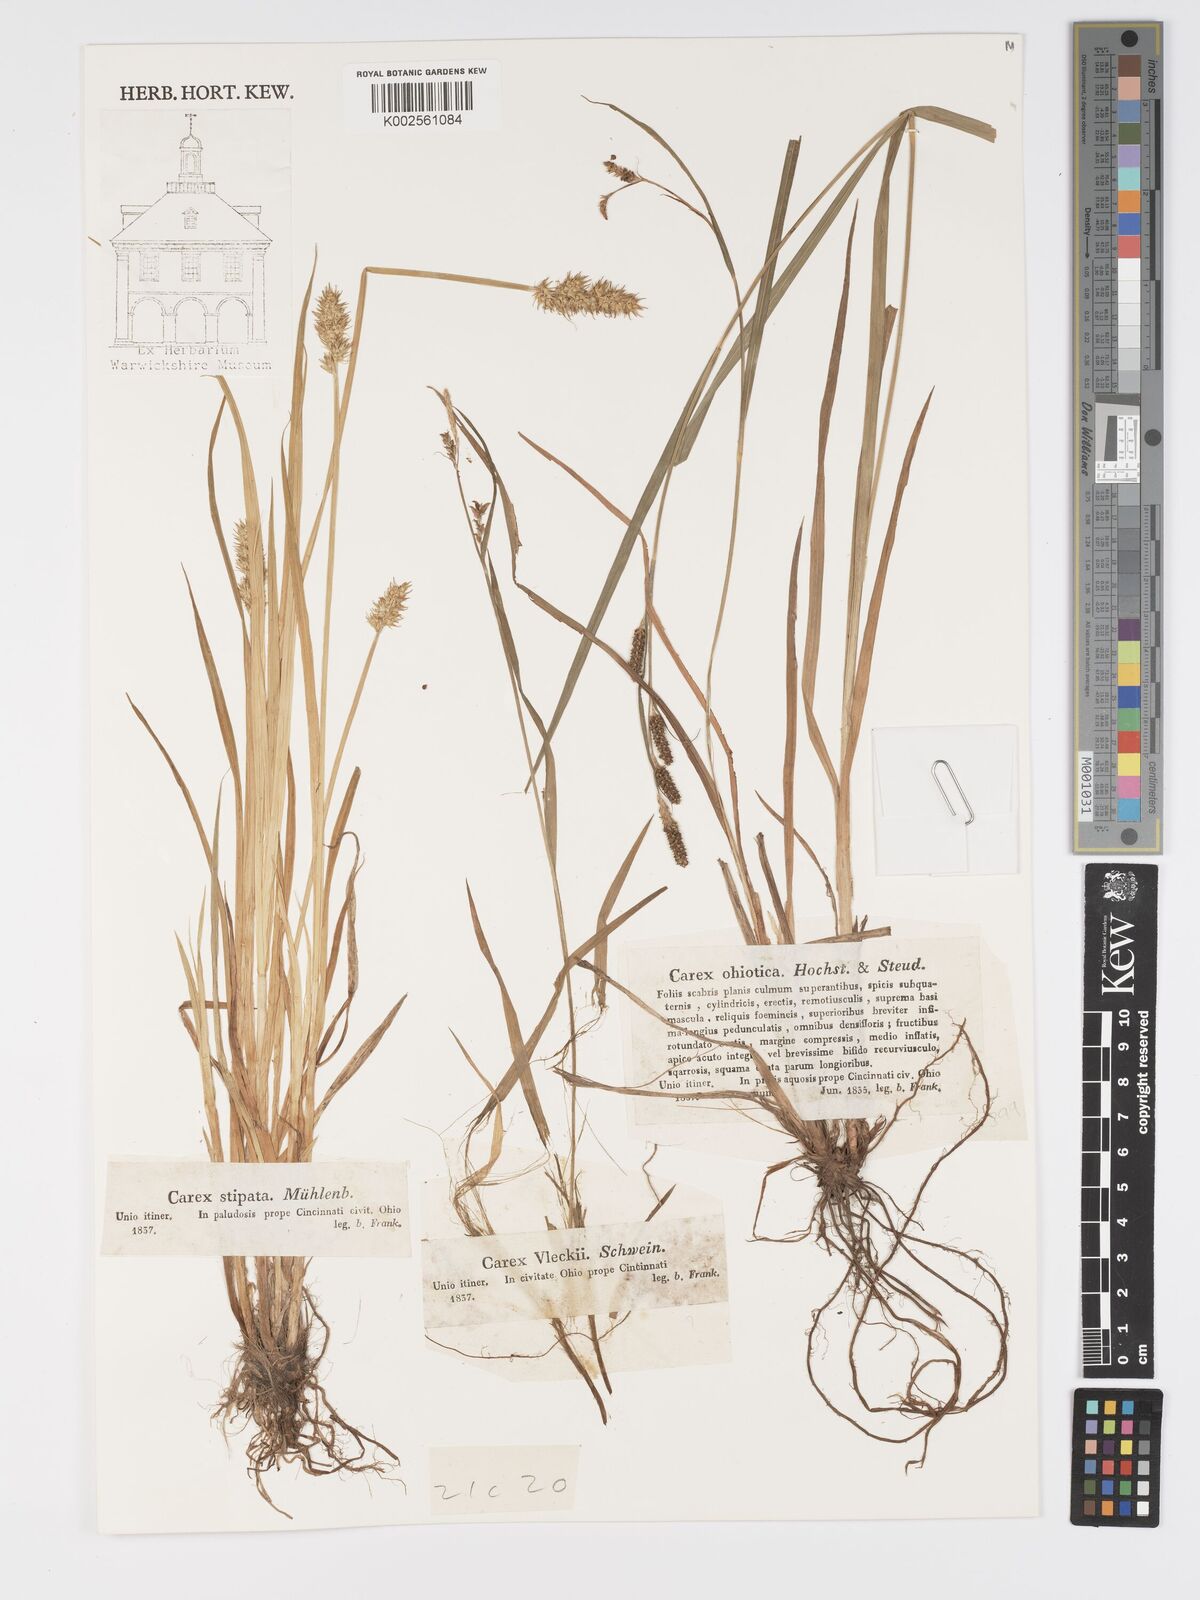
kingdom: Plantae
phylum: Tracheophyta
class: Liliopsida
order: Poales
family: Cyperaceae
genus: Carex
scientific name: Carex shortiana
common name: Short's sedge
